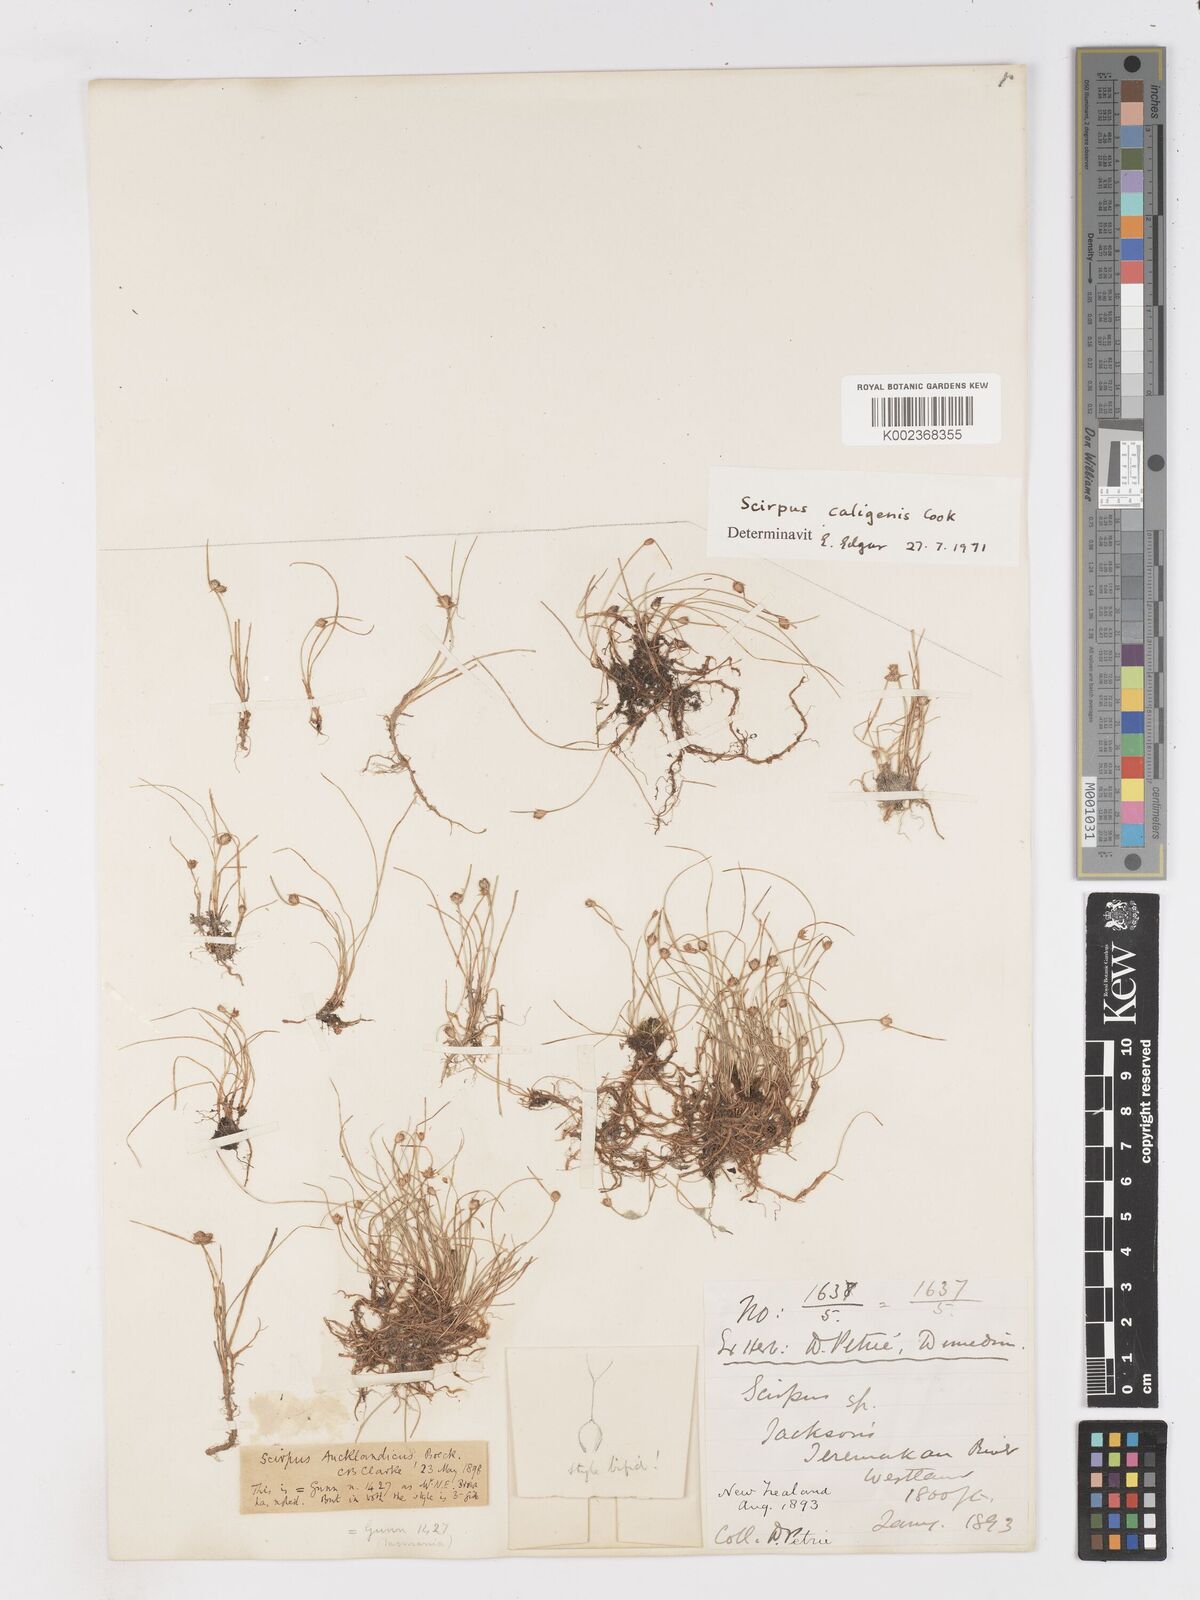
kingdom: Plantae
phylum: Tracheophyta
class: Liliopsida
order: Poales
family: Cyperaceae
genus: Isolepis
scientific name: Isolepis caligenis
